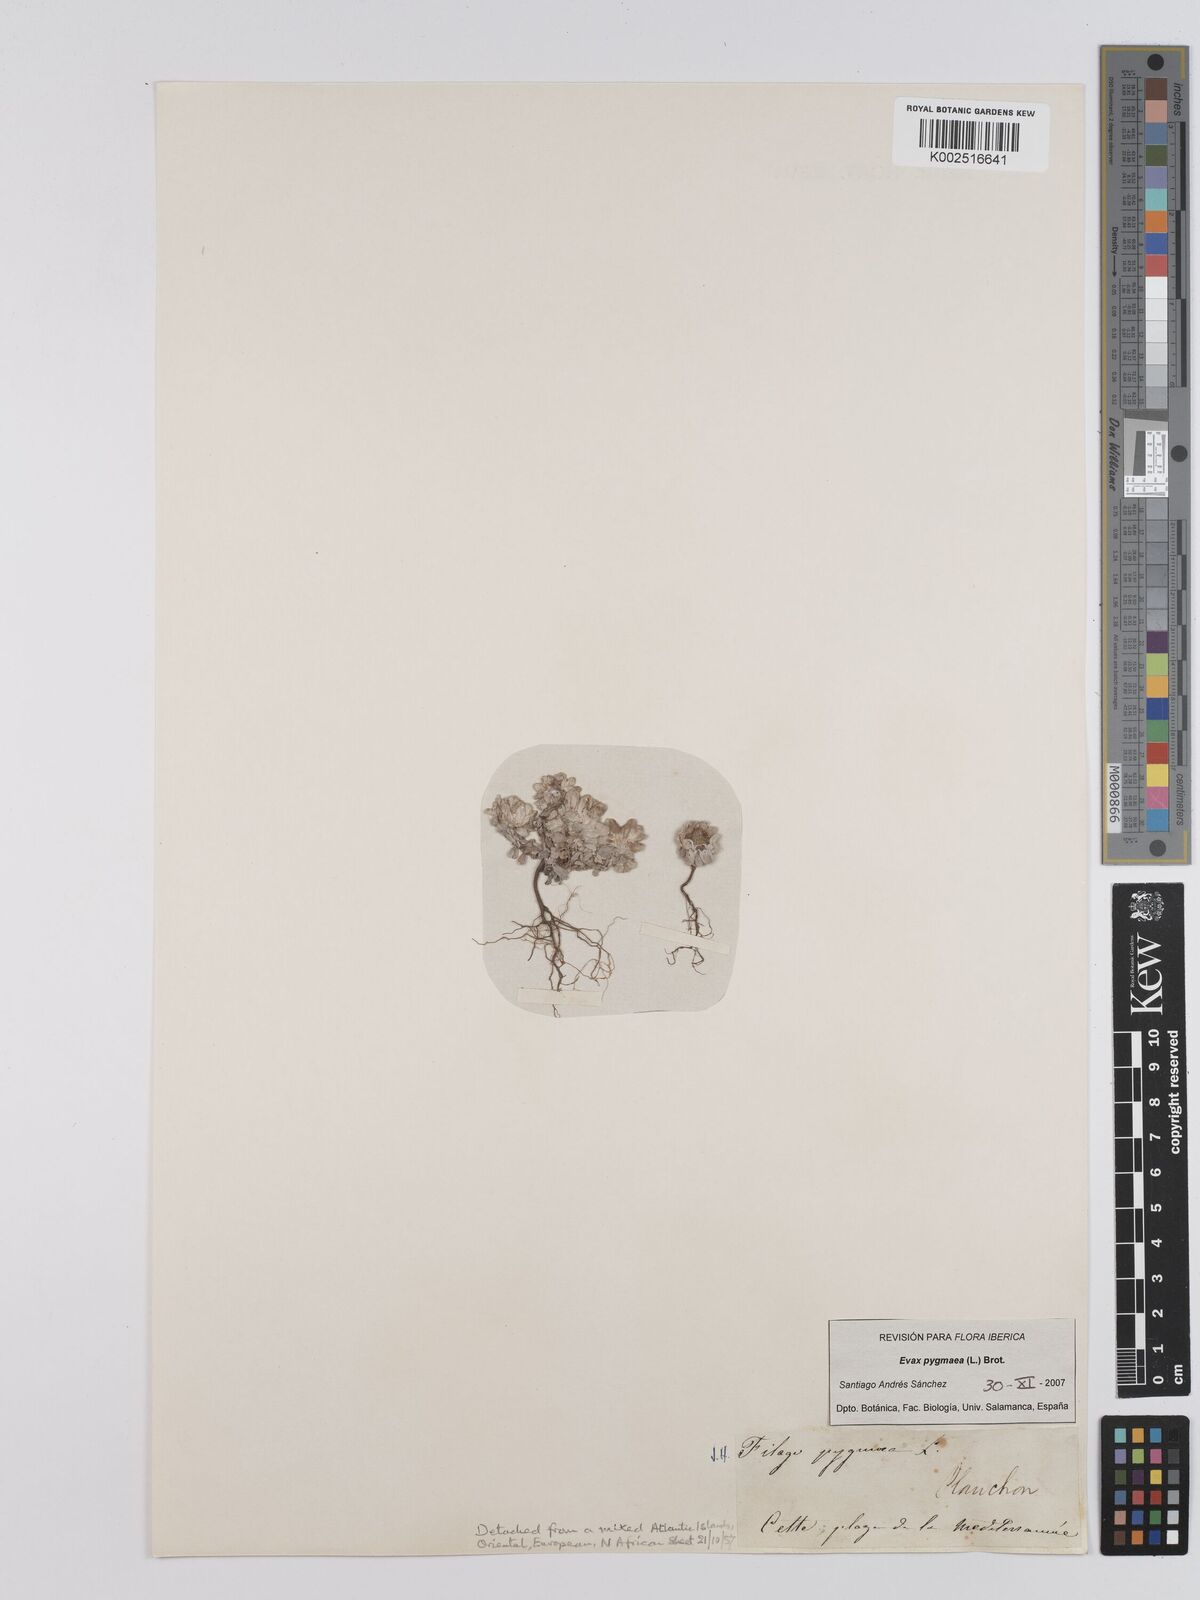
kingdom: Plantae
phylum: Tracheophyta
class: Magnoliopsida
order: Asterales
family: Asteraceae
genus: Filago
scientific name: Filago pygmaea
